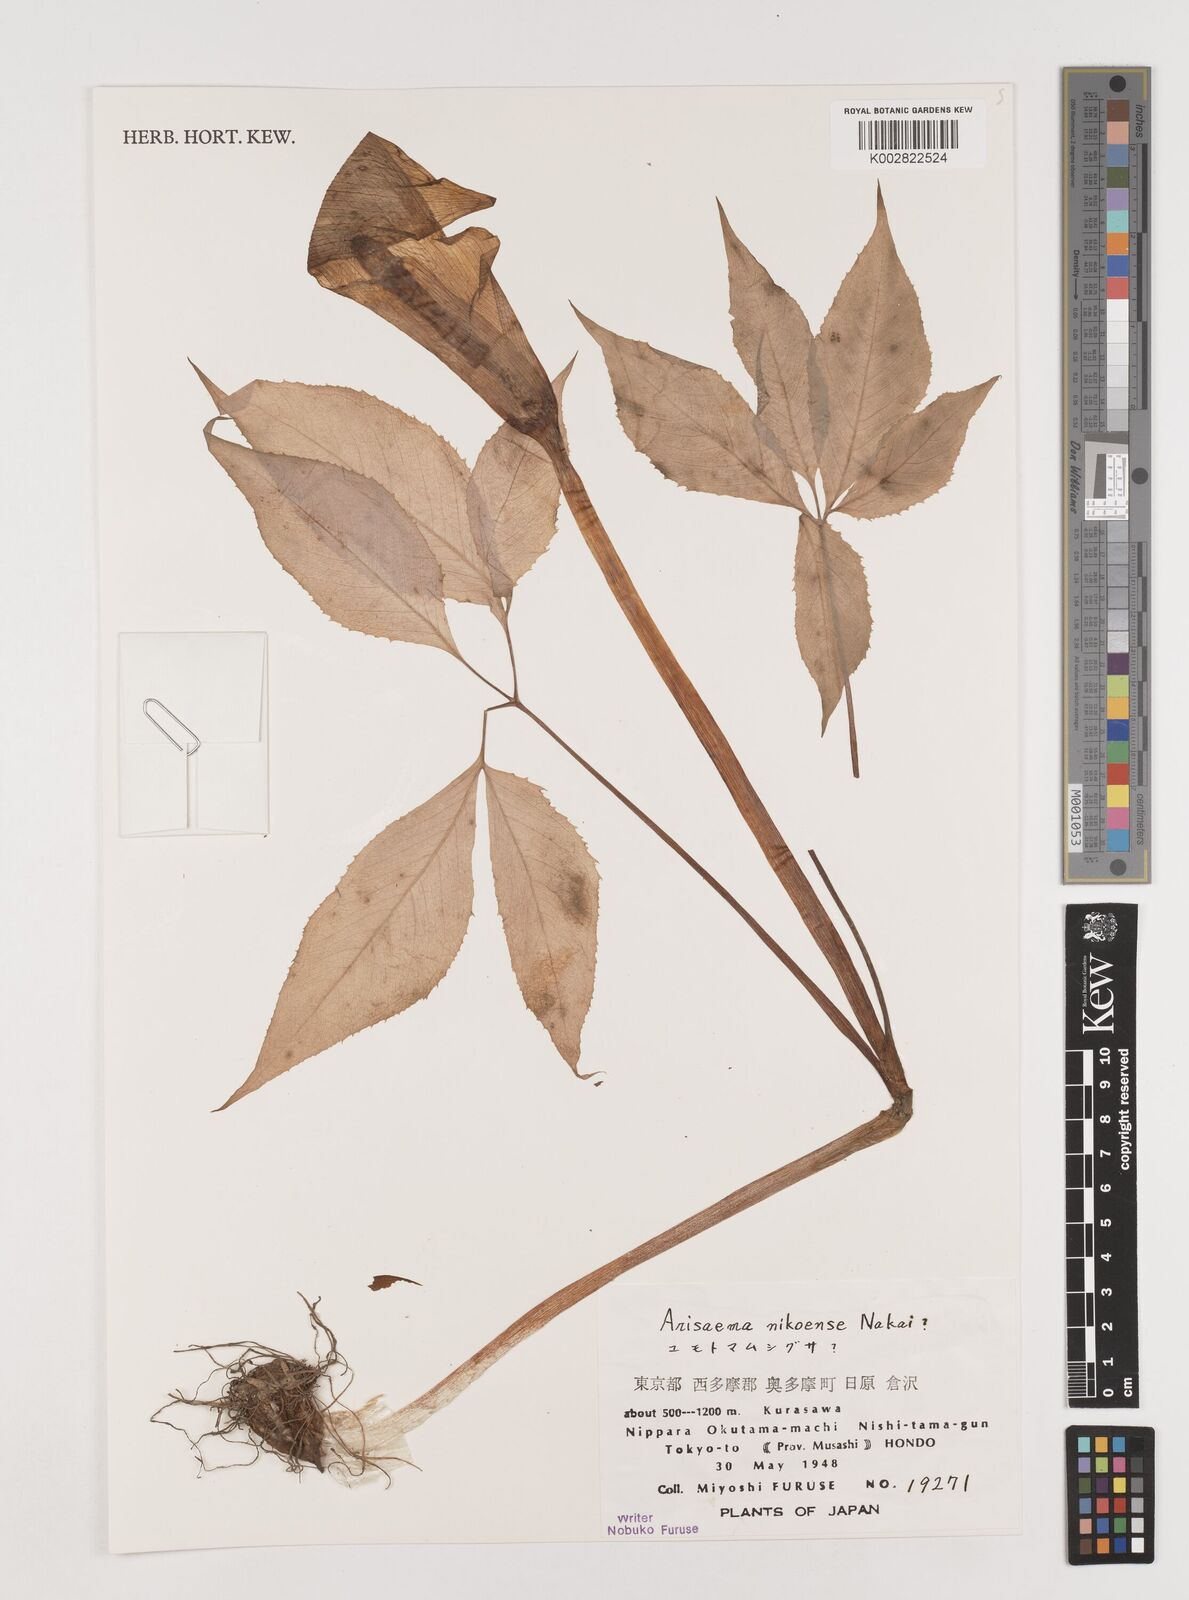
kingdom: Plantae
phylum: Tracheophyta
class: Liliopsida
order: Alismatales
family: Araceae
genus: Arisaema
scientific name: Arisaema nikoense
